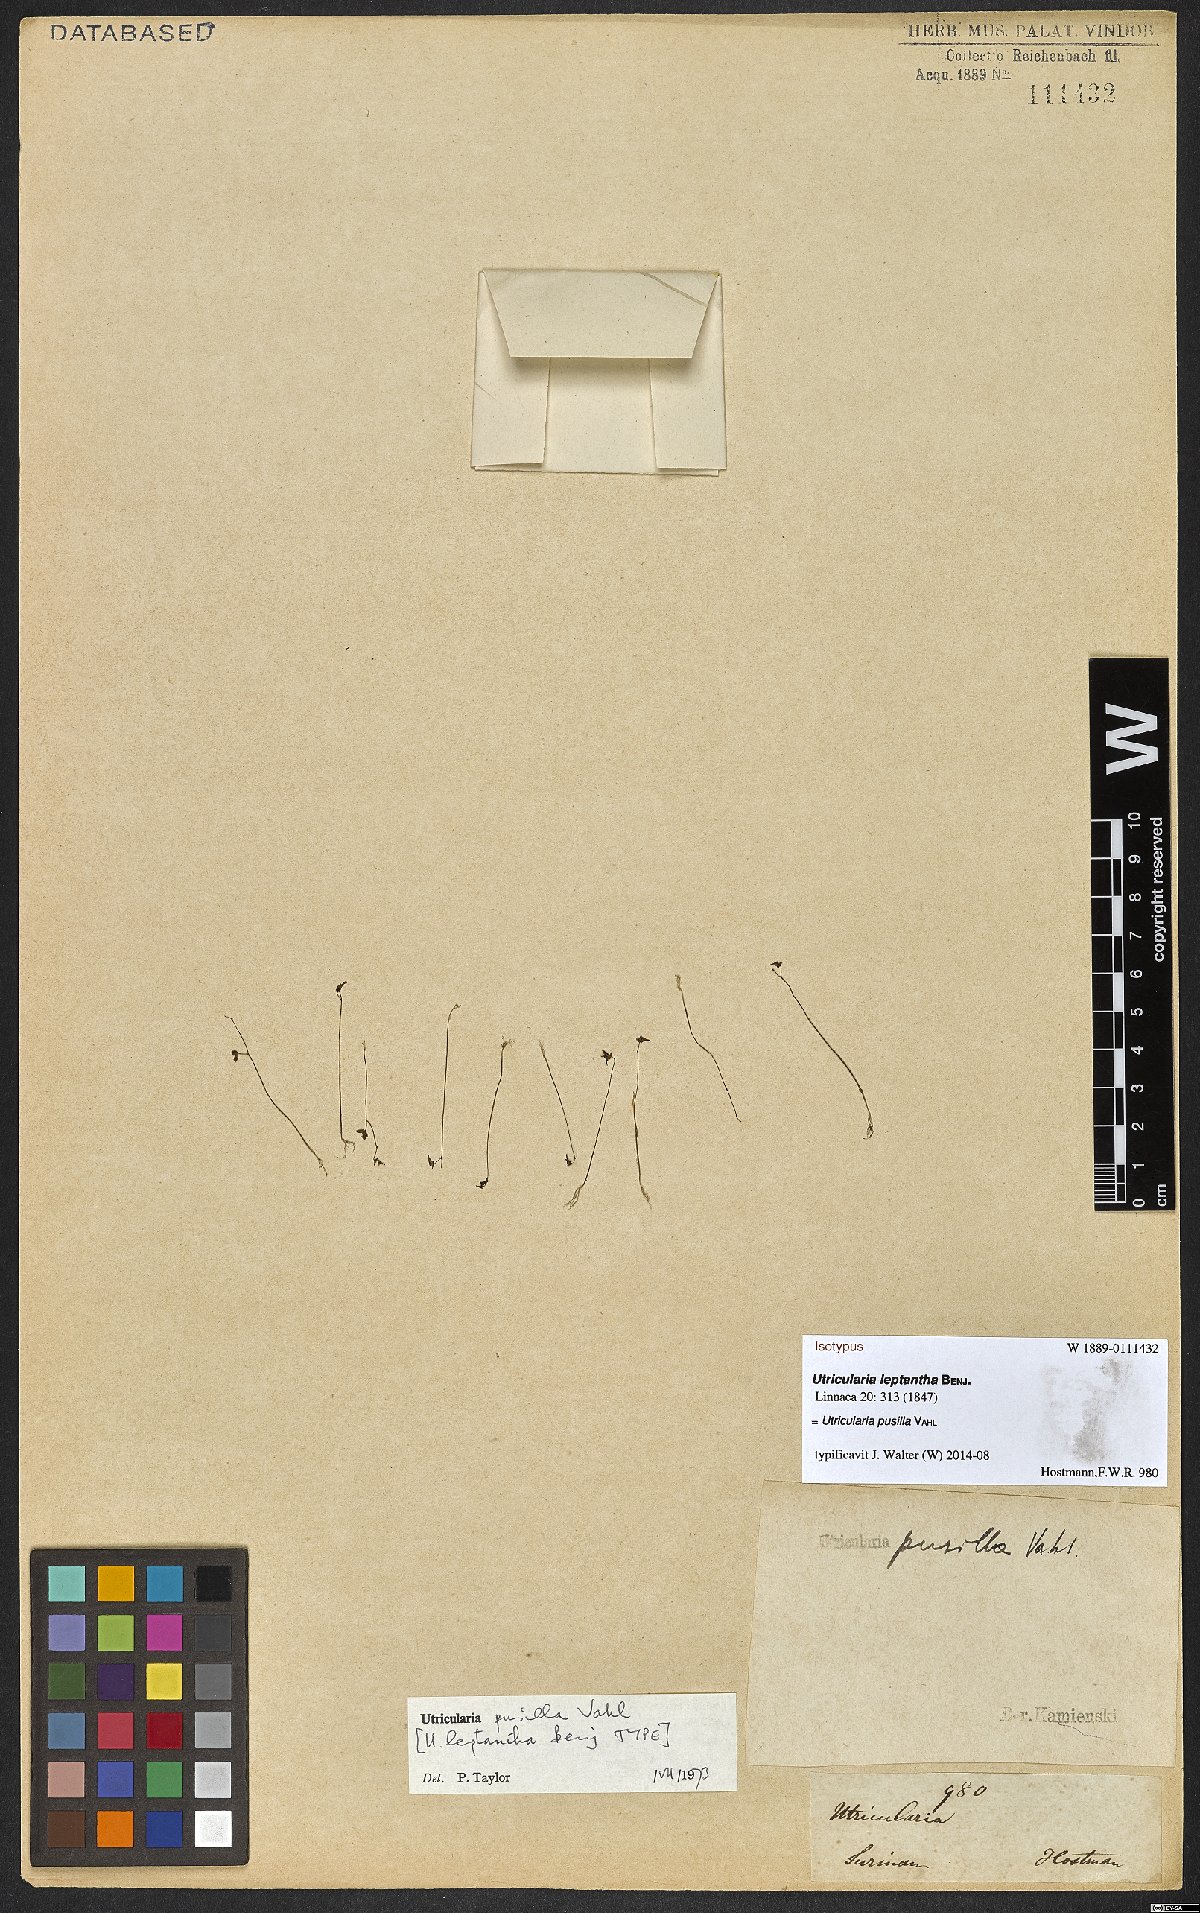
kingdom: Plantae
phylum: Tracheophyta
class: Magnoliopsida
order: Lamiales
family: Lentibulariaceae
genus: Utricularia
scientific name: Utricularia pusilla
